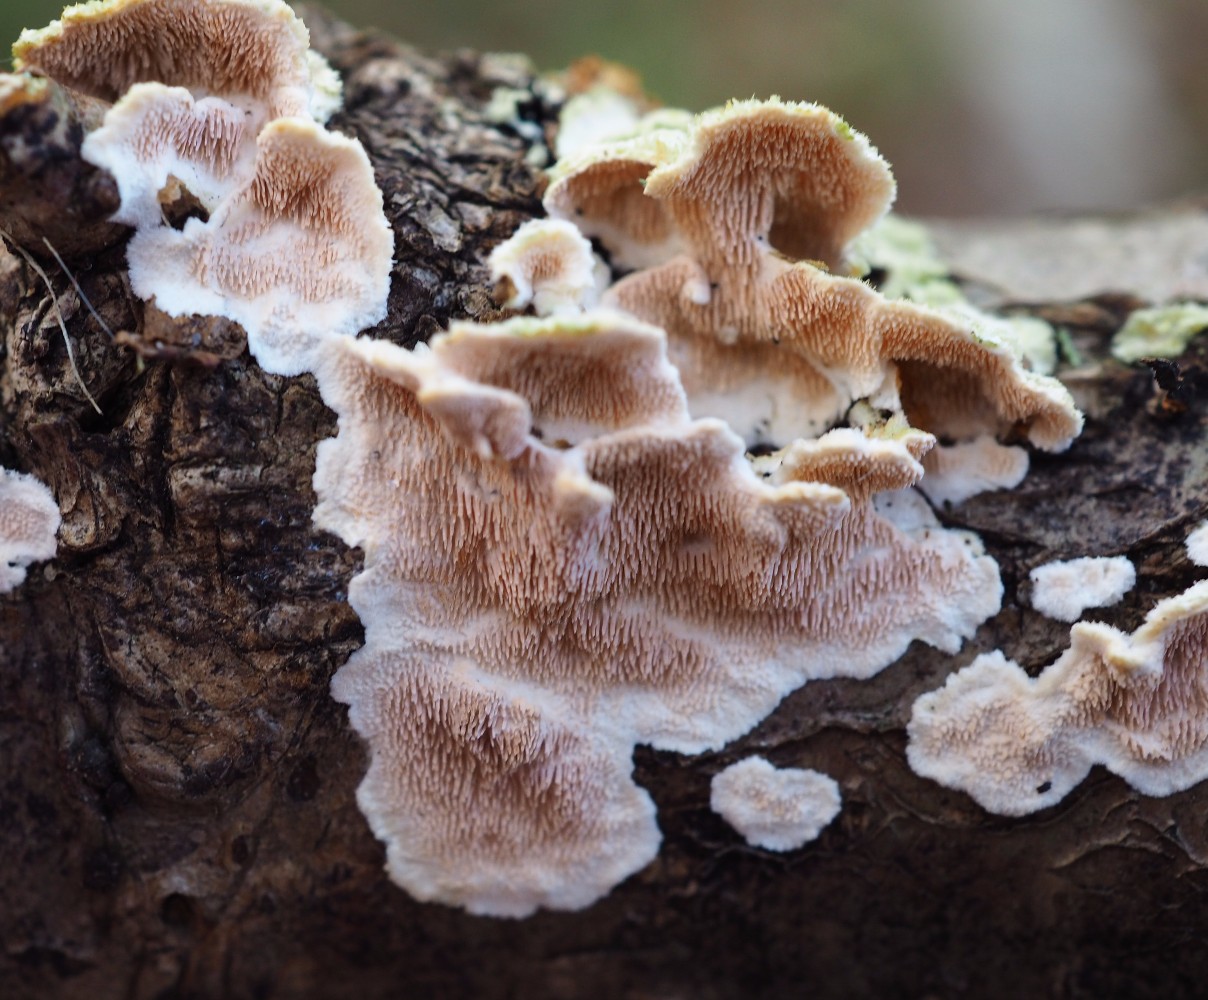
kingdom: Fungi
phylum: Basidiomycota
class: Agaricomycetes
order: Polyporales
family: Steccherinaceae
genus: Steccherinum
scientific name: Steccherinum
